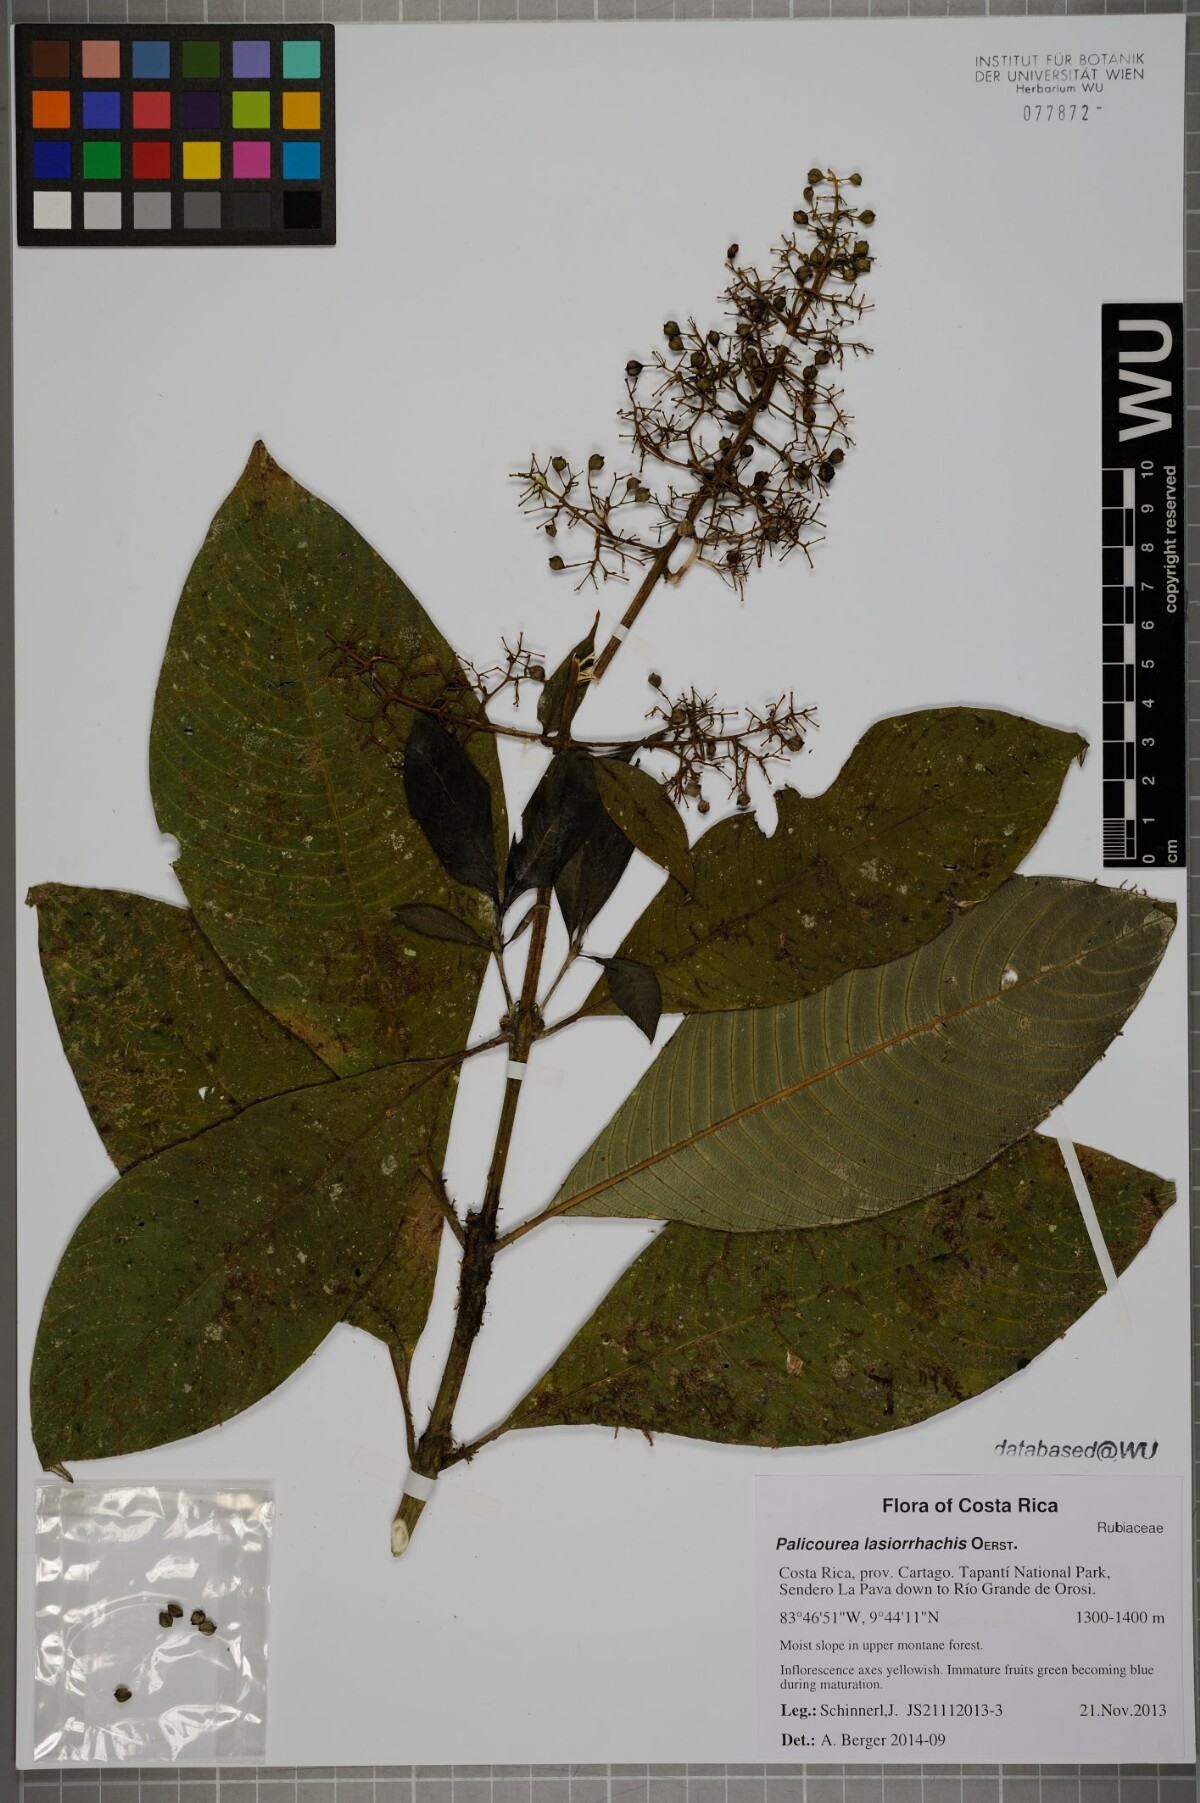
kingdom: Plantae
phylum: Tracheophyta
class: Magnoliopsida
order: Gentianales
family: Rubiaceae
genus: Palicourea
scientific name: Palicourea lasiorrhachis
